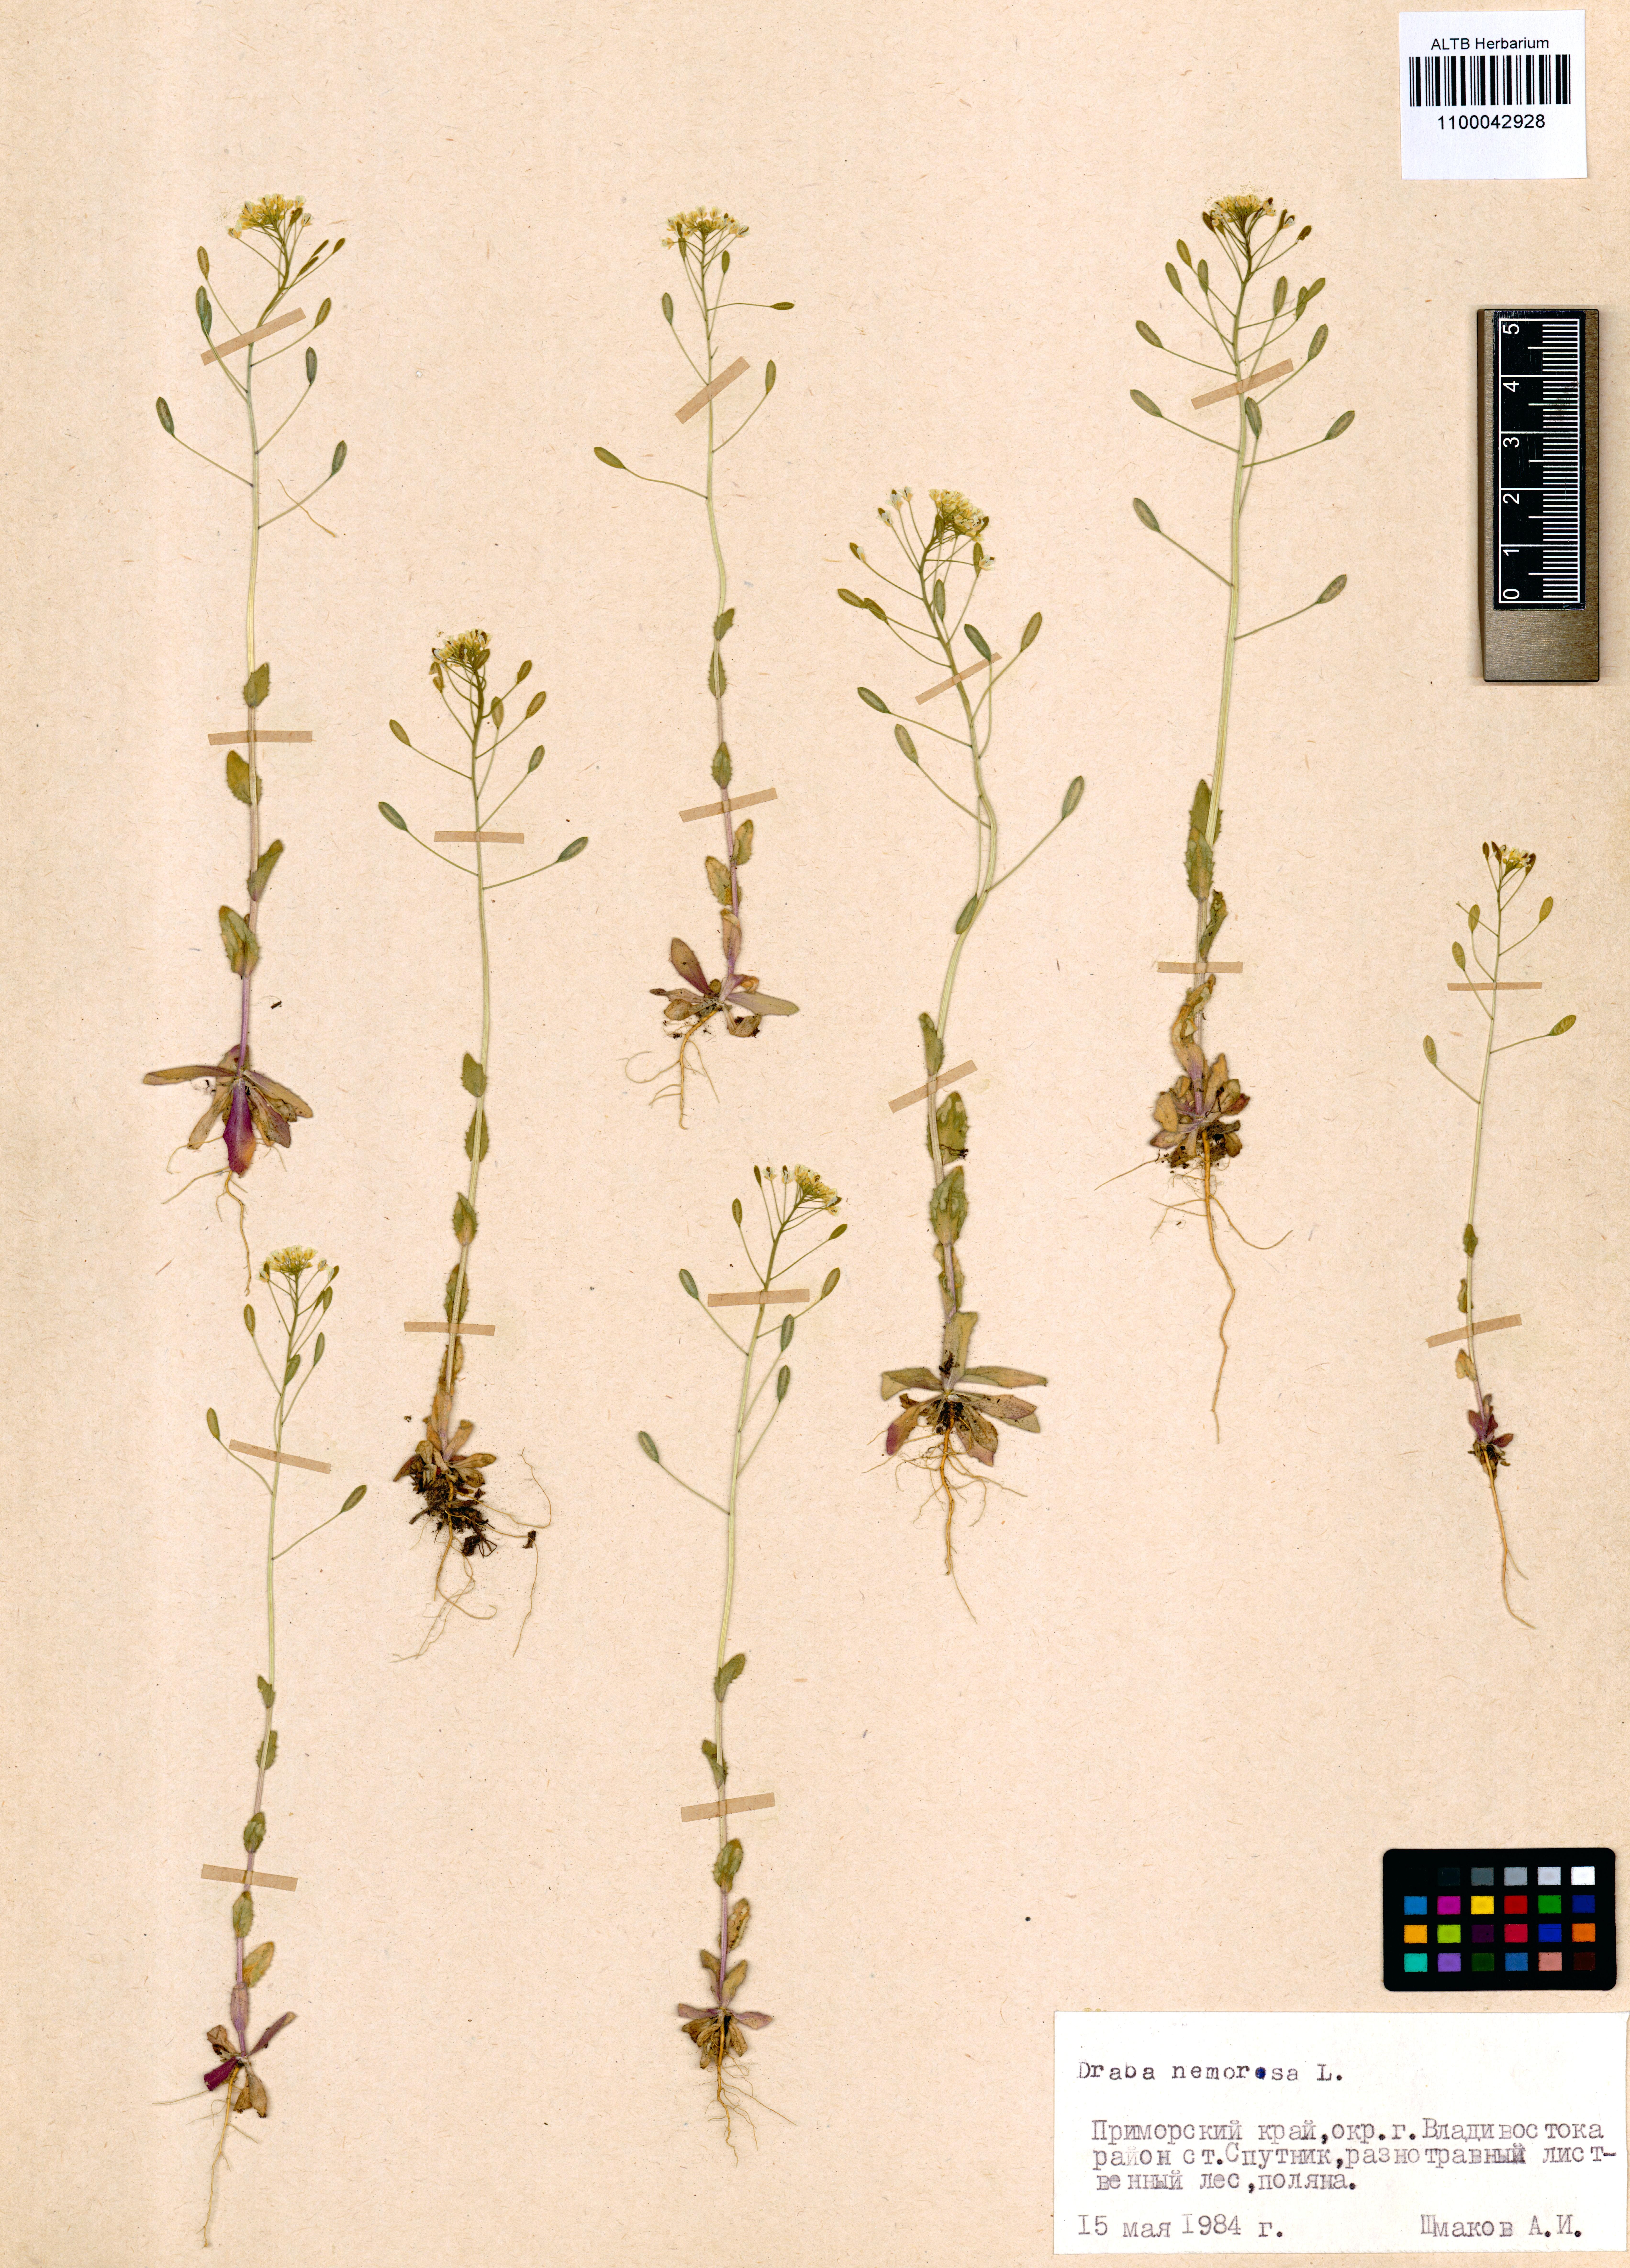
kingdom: Plantae
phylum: Tracheophyta
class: Magnoliopsida
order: Brassicales
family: Brassicaceae
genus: Draba
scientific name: Draba nemorosa
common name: Wood whitlow-grass
